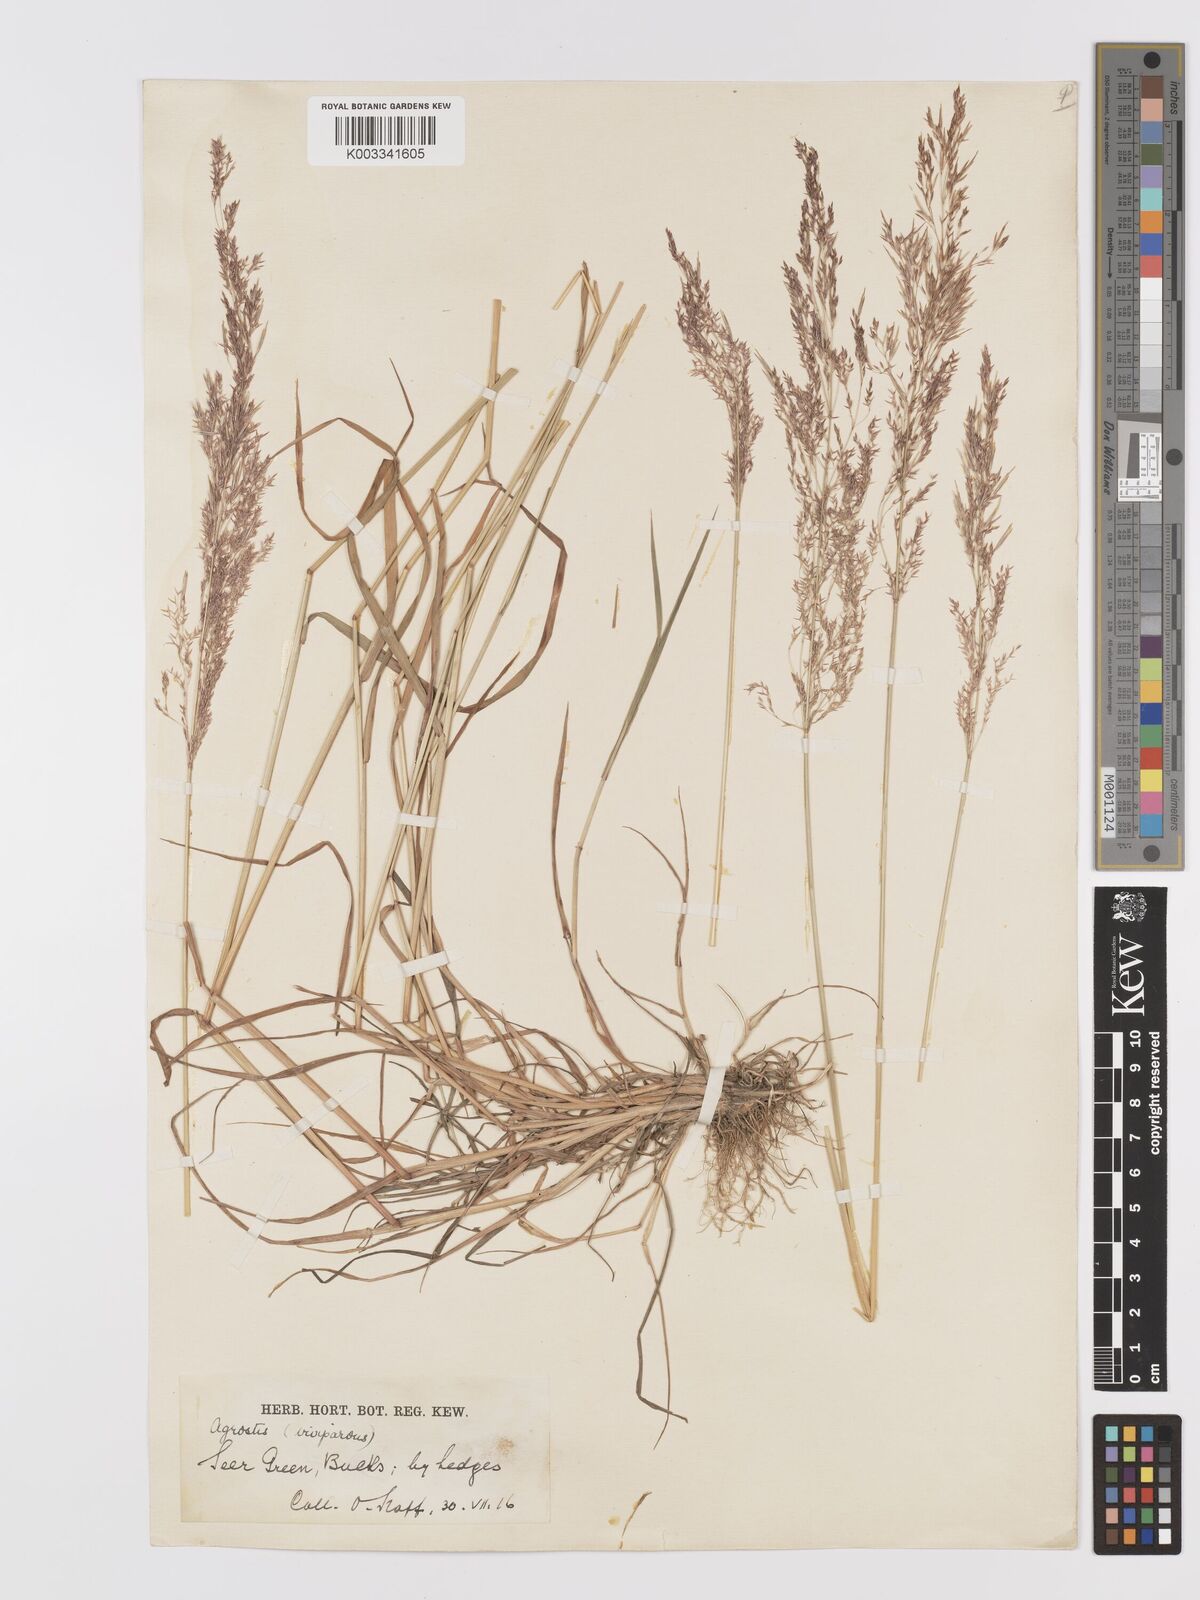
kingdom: Plantae
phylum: Tracheophyta
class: Liliopsida
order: Poales
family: Poaceae
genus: Agrostis
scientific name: Agrostis stolonifera
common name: Creeping bentgrass
